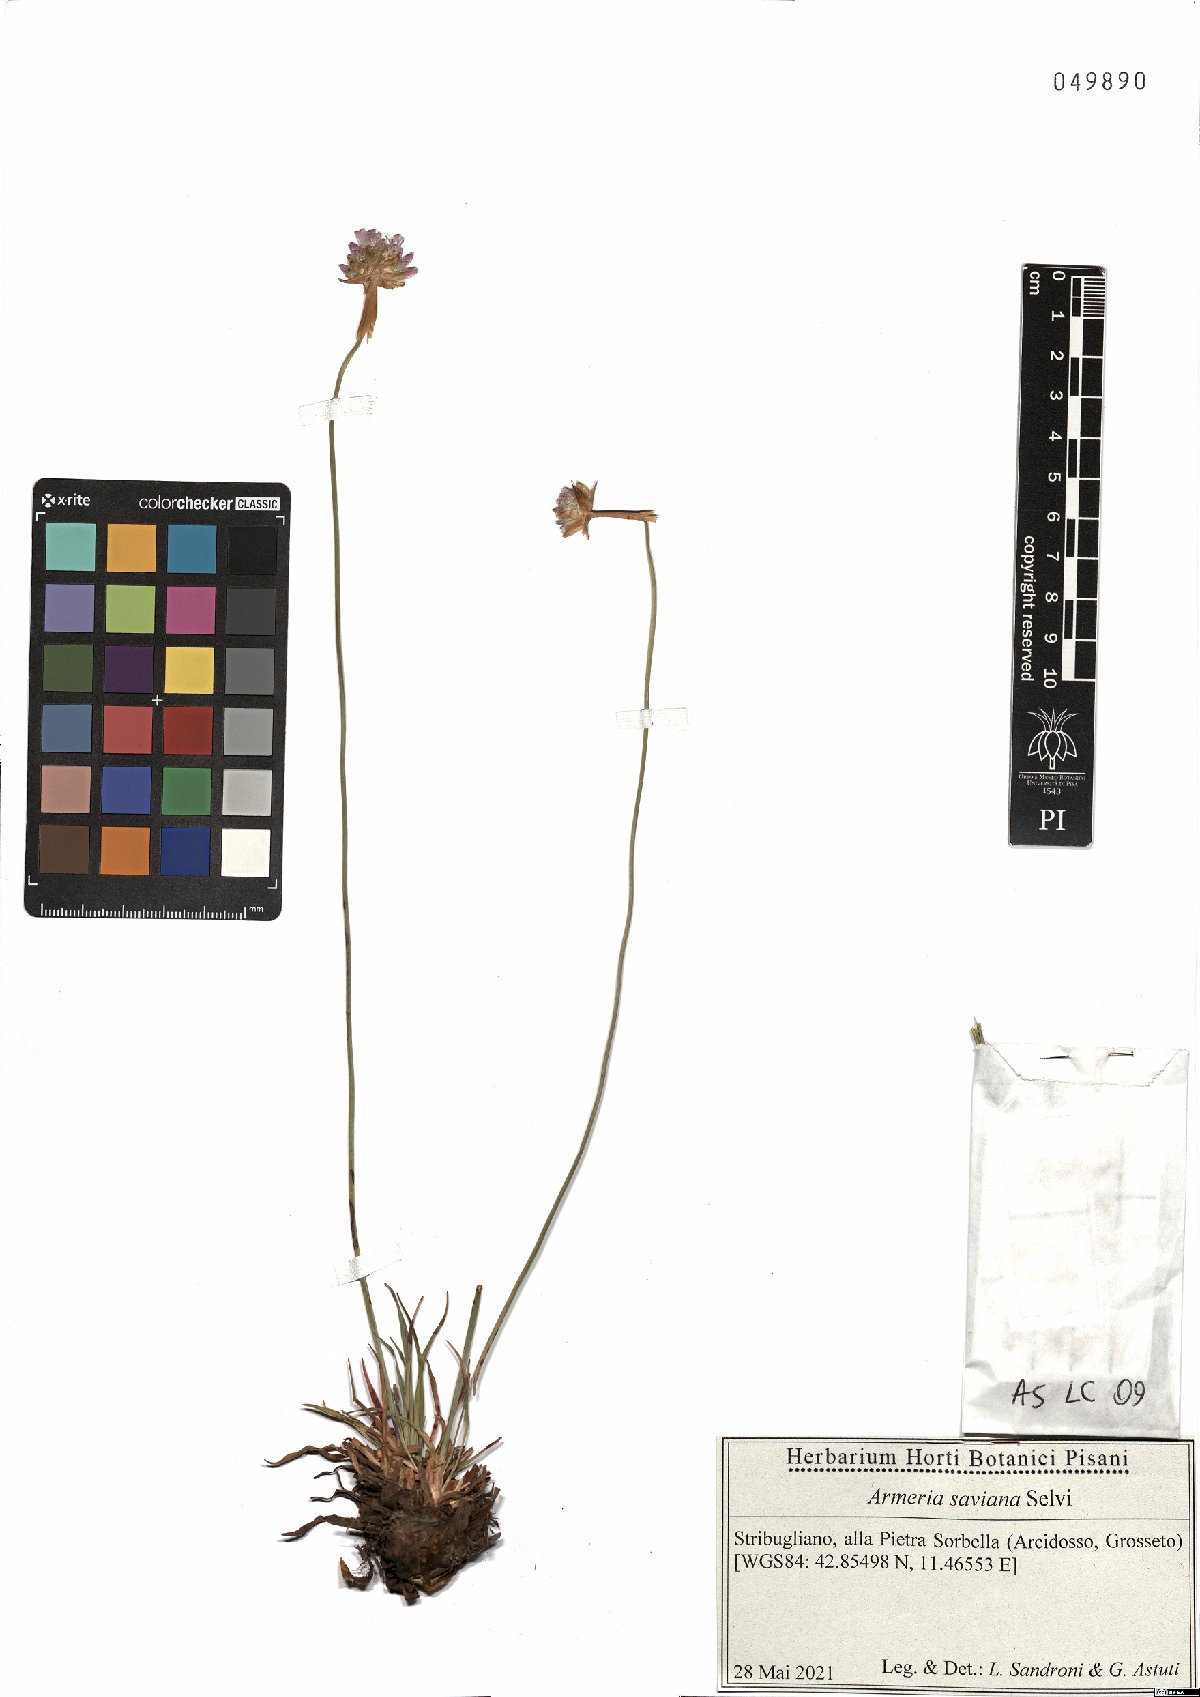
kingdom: Plantae
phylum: Tracheophyta
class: Magnoliopsida
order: Caryophyllales
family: Plumbaginaceae
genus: Armeria
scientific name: Armeria saviana
